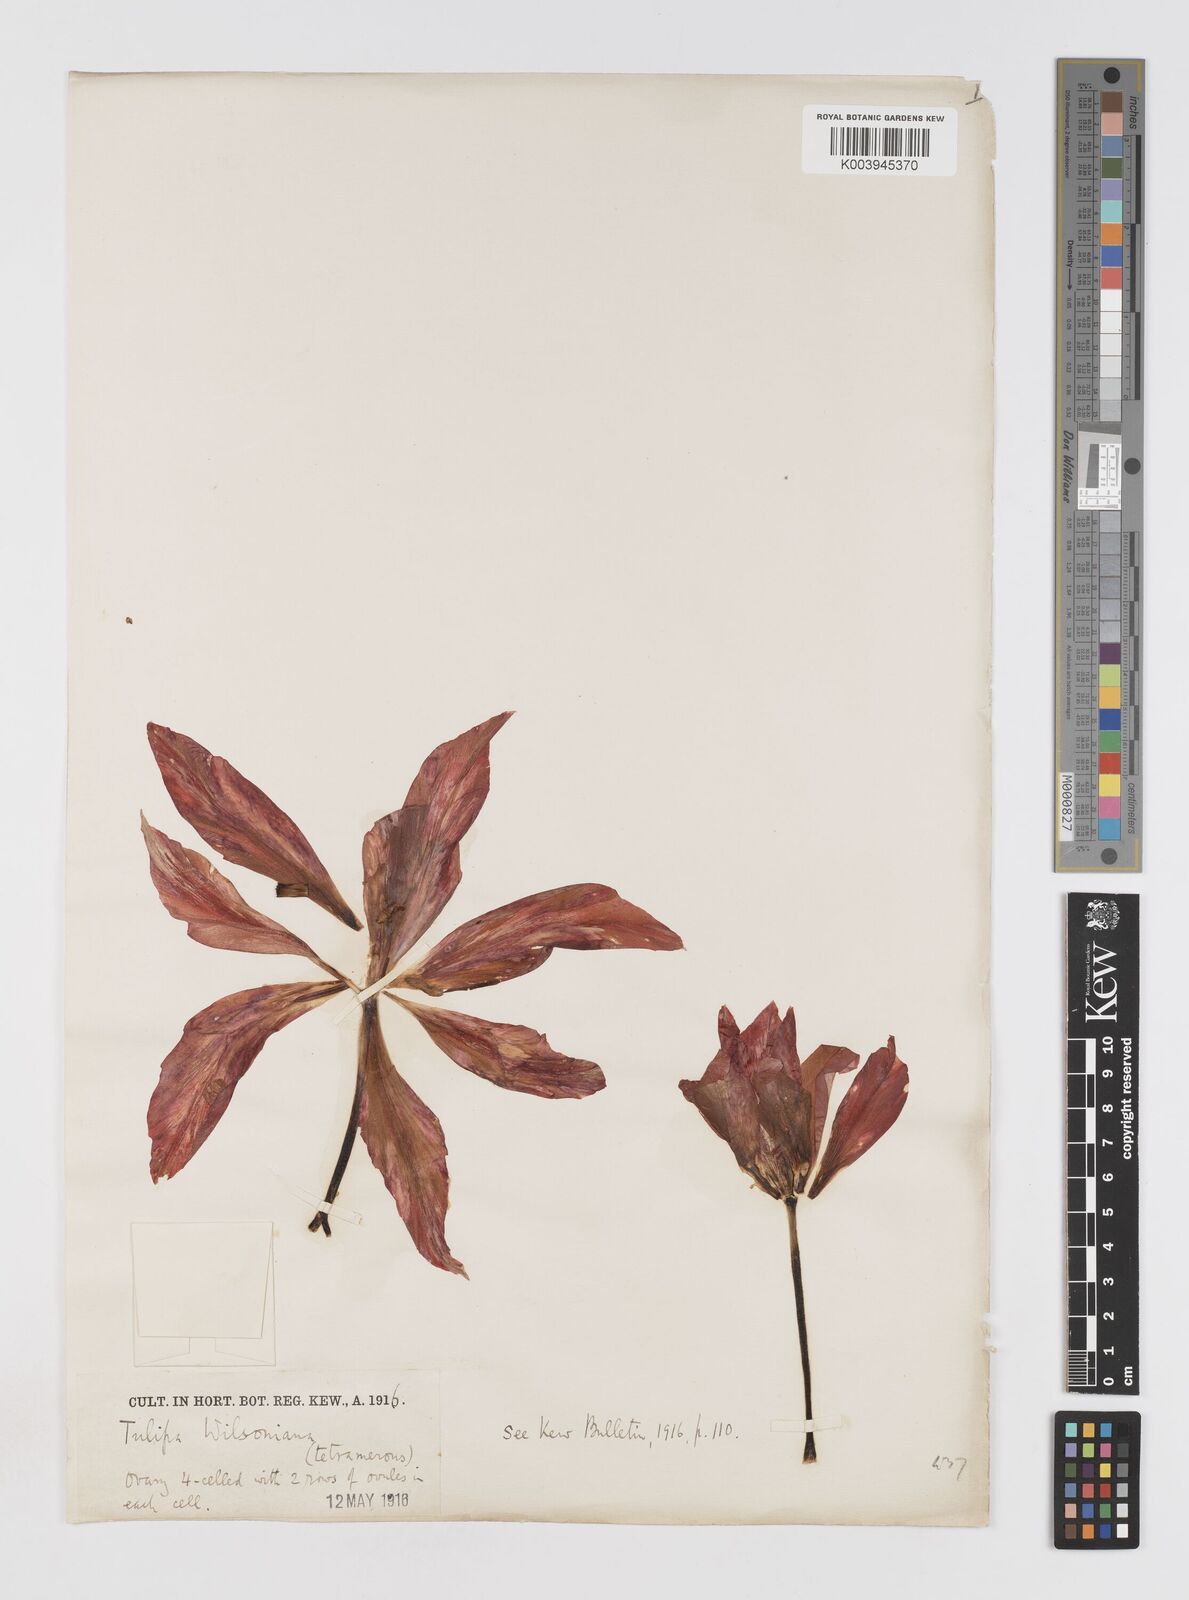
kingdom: Plantae
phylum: Tracheophyta
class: Liliopsida
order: Liliales
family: Liliaceae
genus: Tulipa
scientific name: Tulipa
